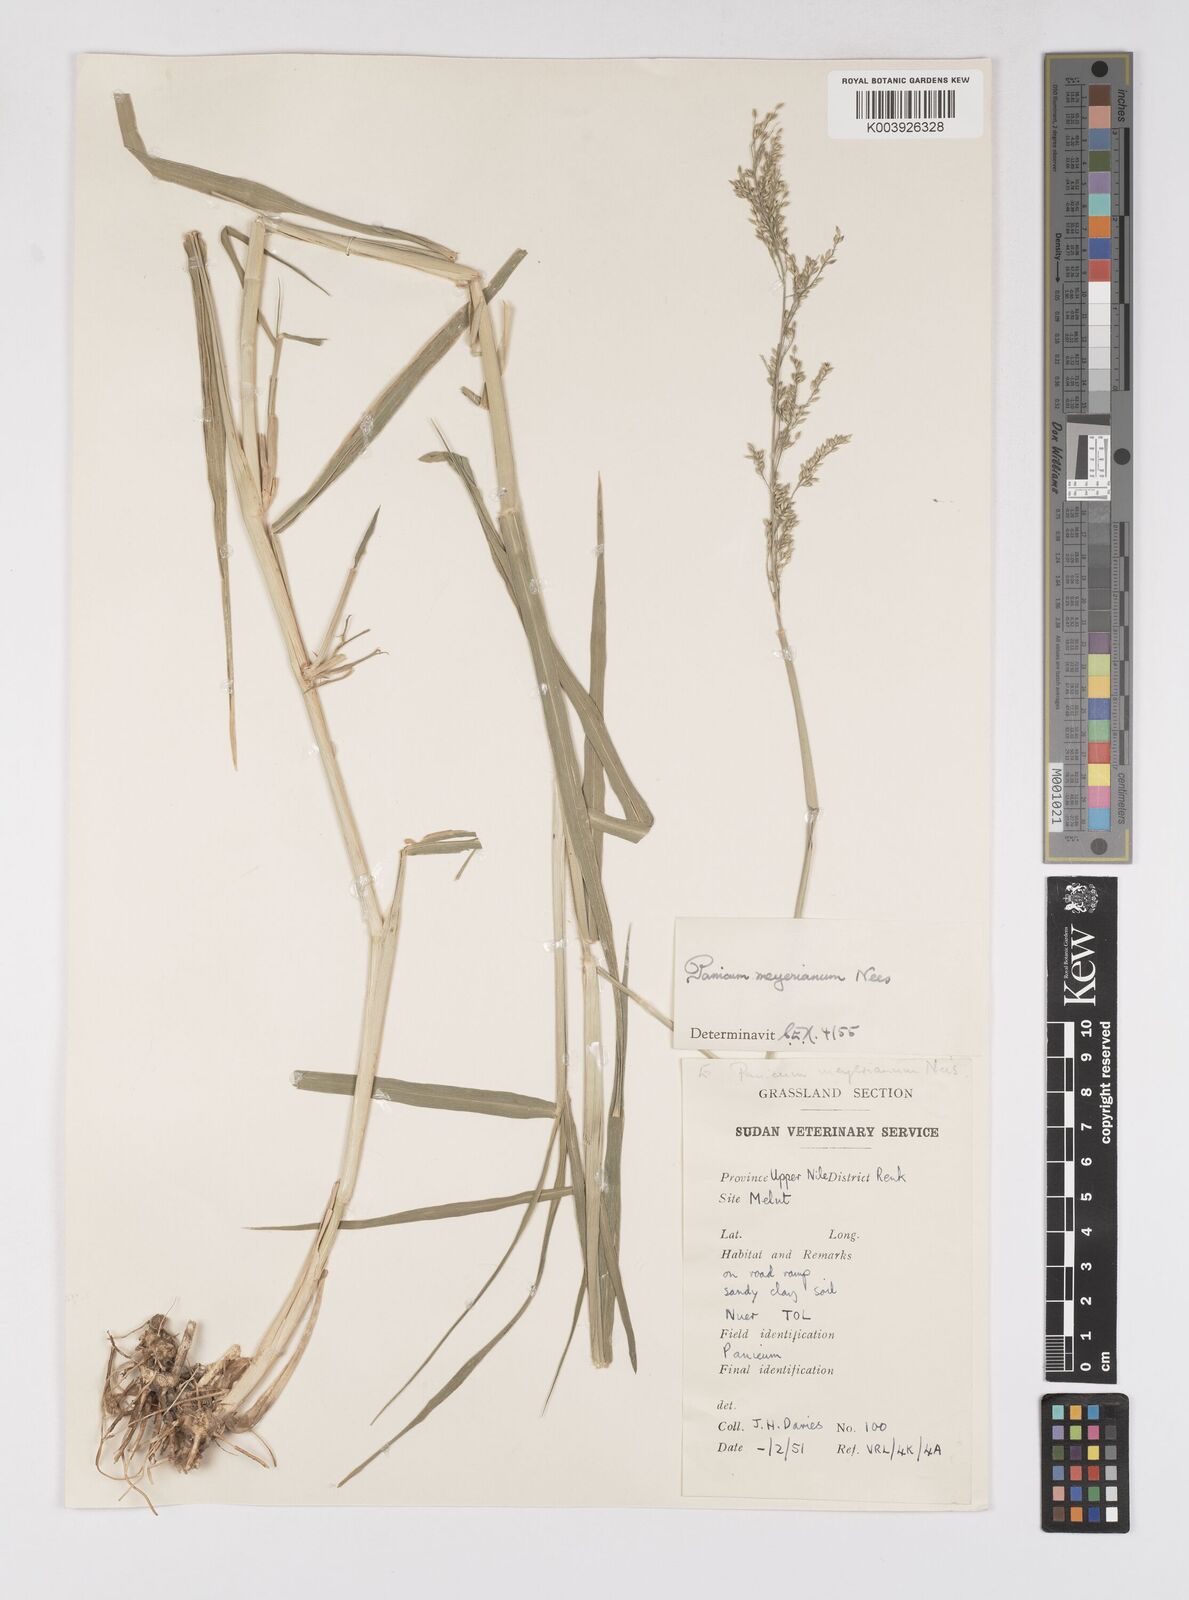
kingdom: Plantae
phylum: Tracheophyta
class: Liliopsida
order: Poales
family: Poaceae
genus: Eriochloa
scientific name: Eriochloa meyeriana
